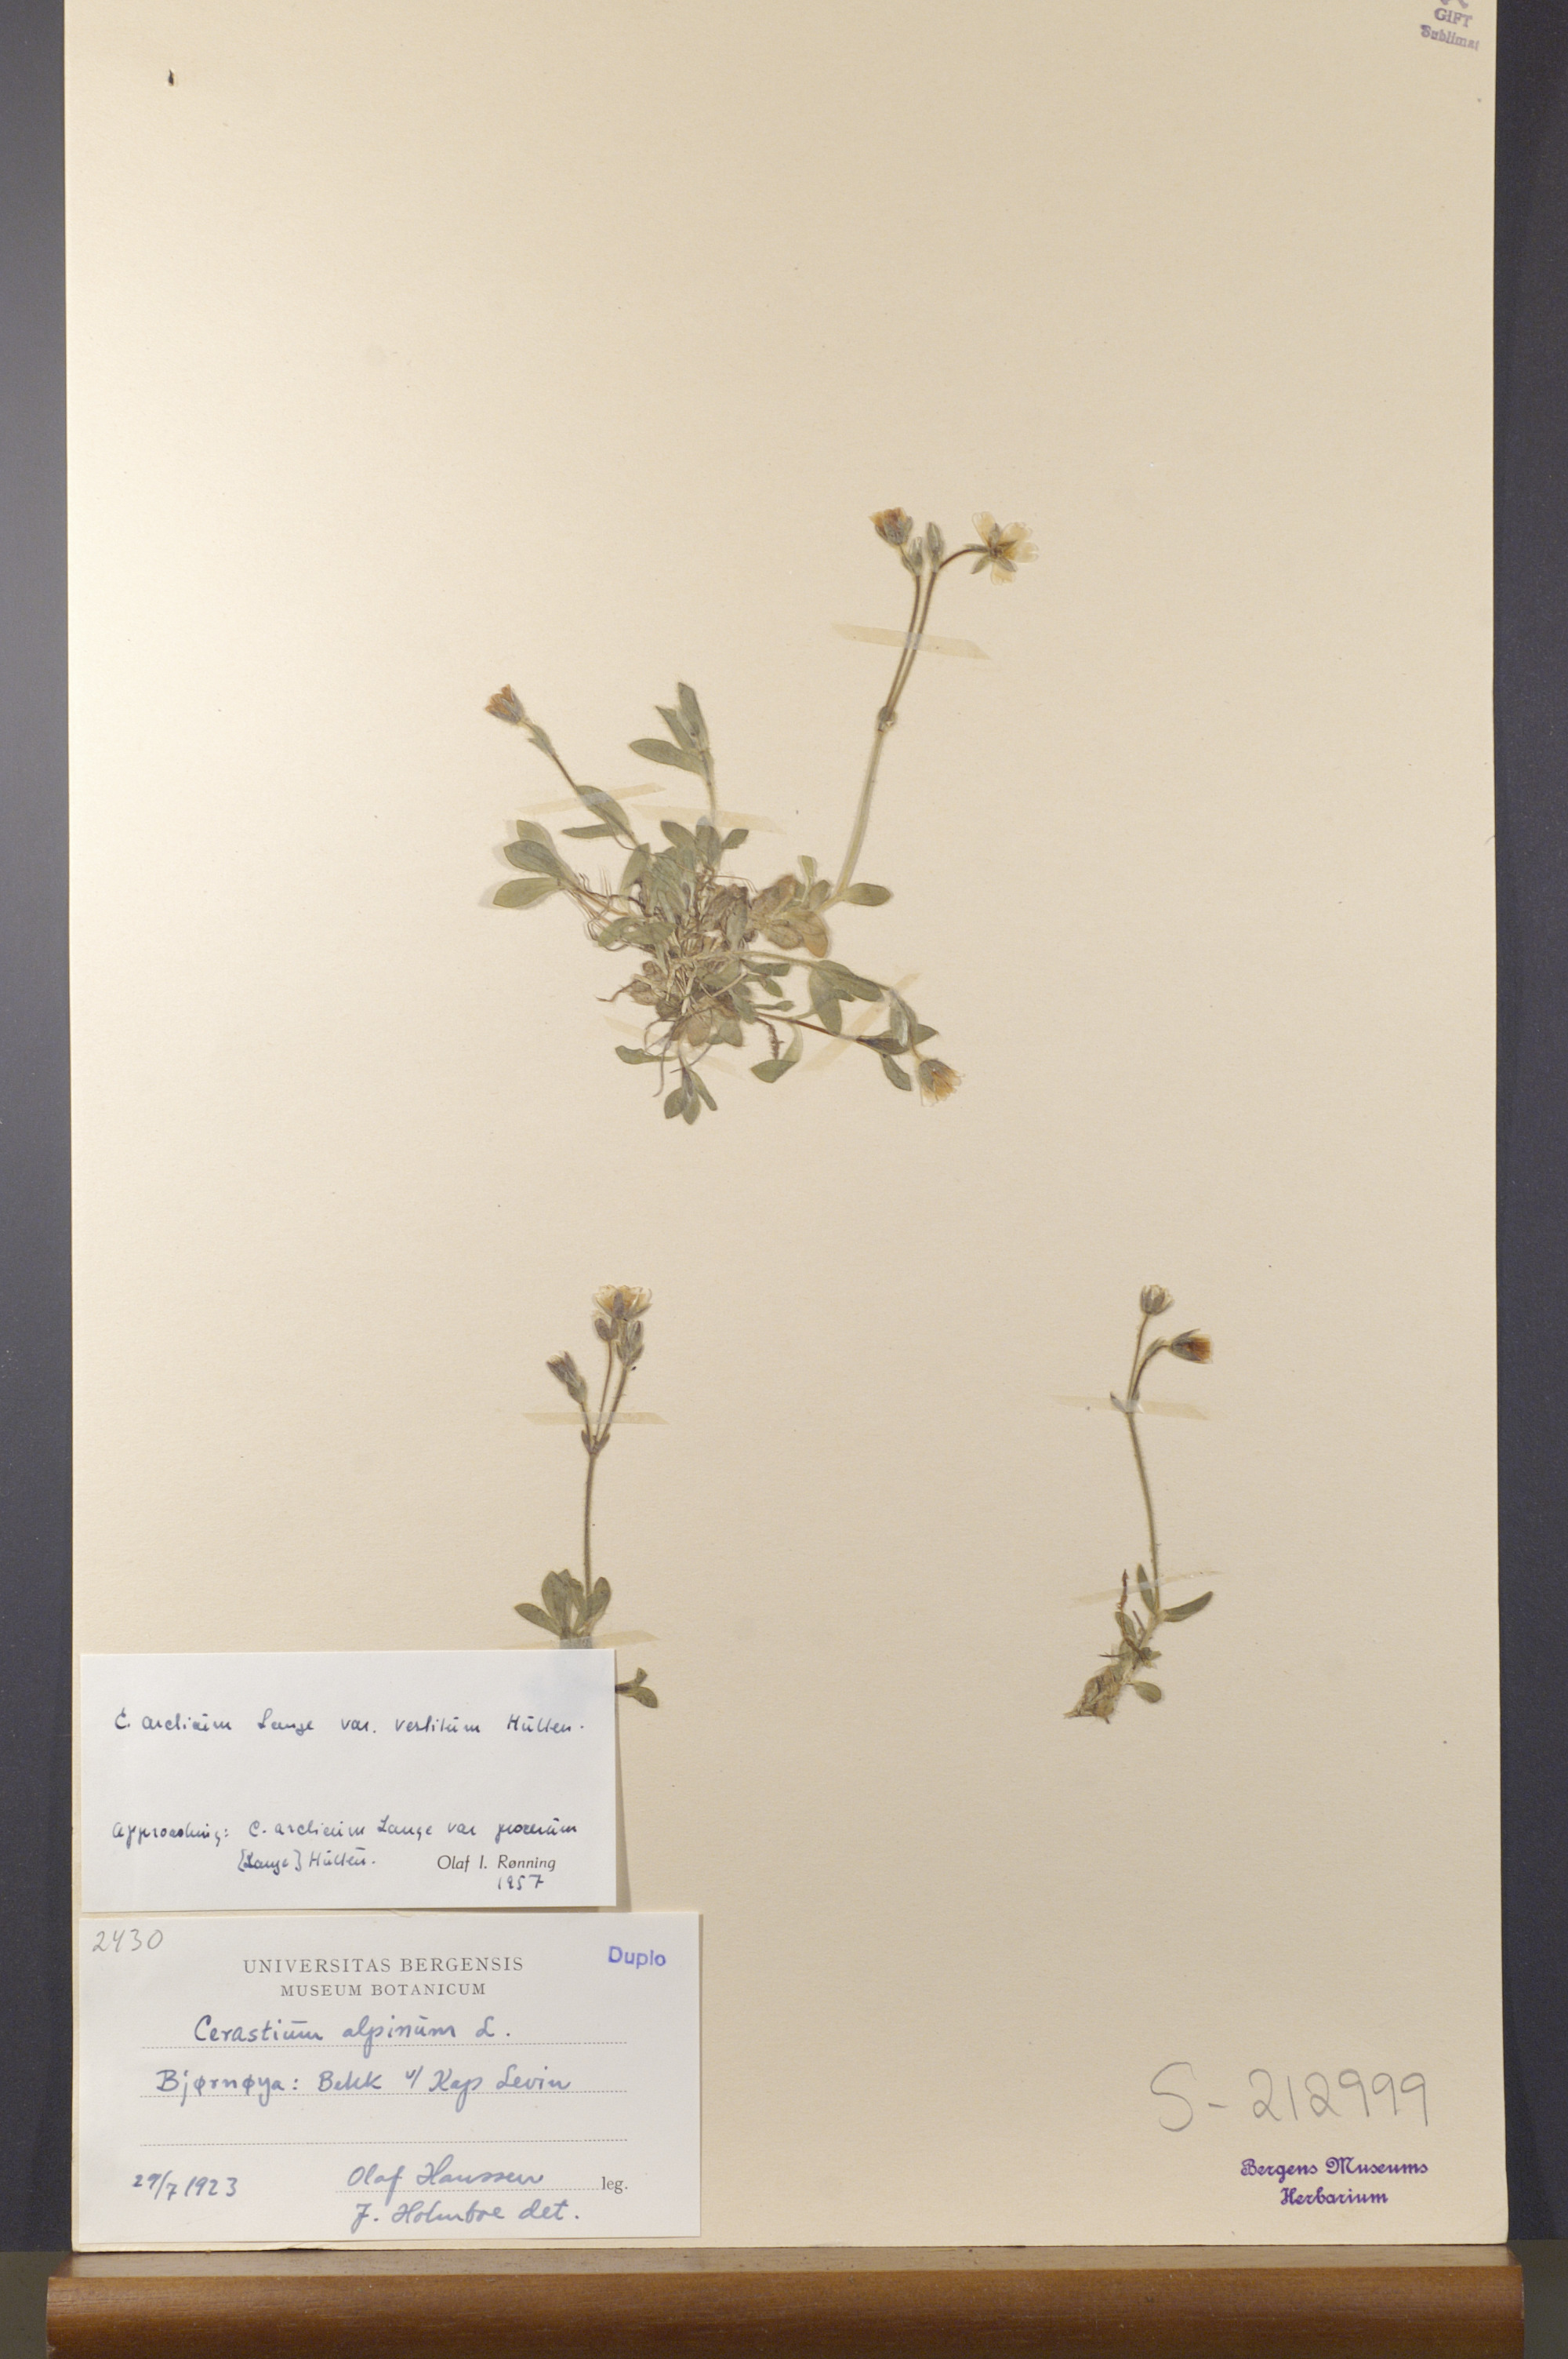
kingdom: Plantae
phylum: Tracheophyta
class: Magnoliopsida
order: Caryophyllales
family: Caryophyllaceae
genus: Cerastium
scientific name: Cerastium arcticum
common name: Arctic mouse-ear
